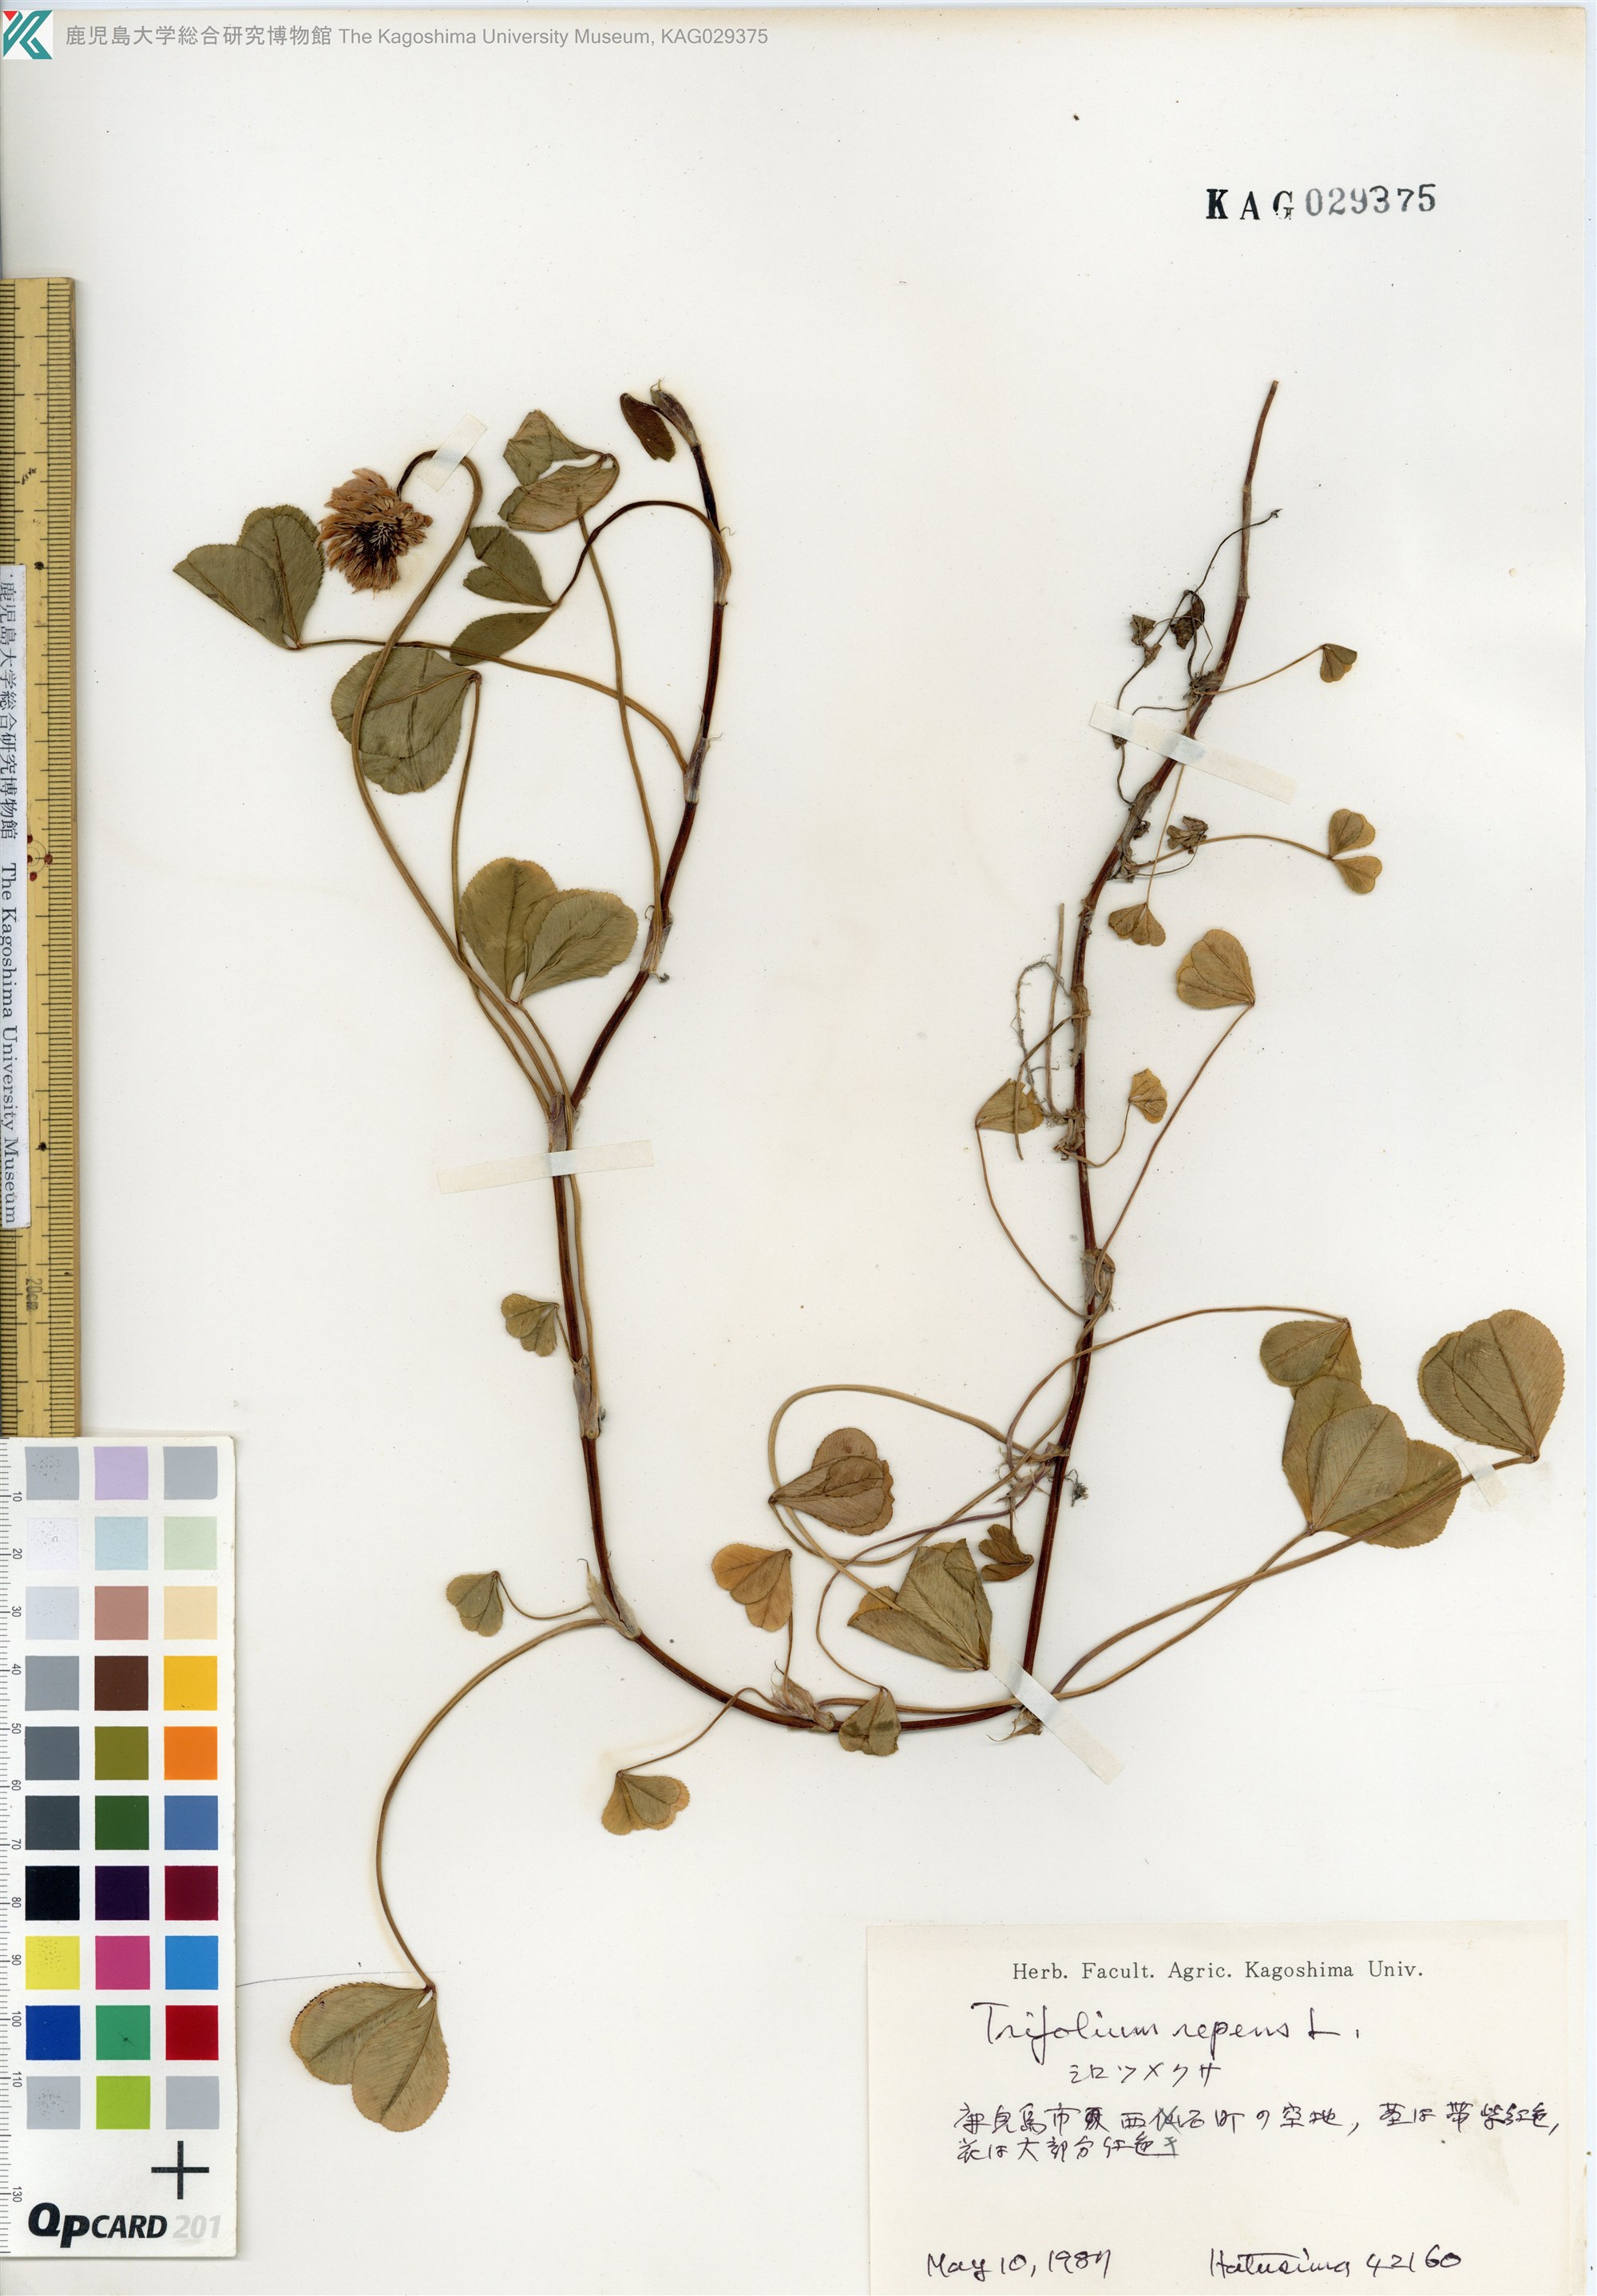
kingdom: Plantae
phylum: Tracheophyta
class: Magnoliopsida
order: Fabales
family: Fabaceae
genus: Trifolium
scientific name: Trifolium repens
